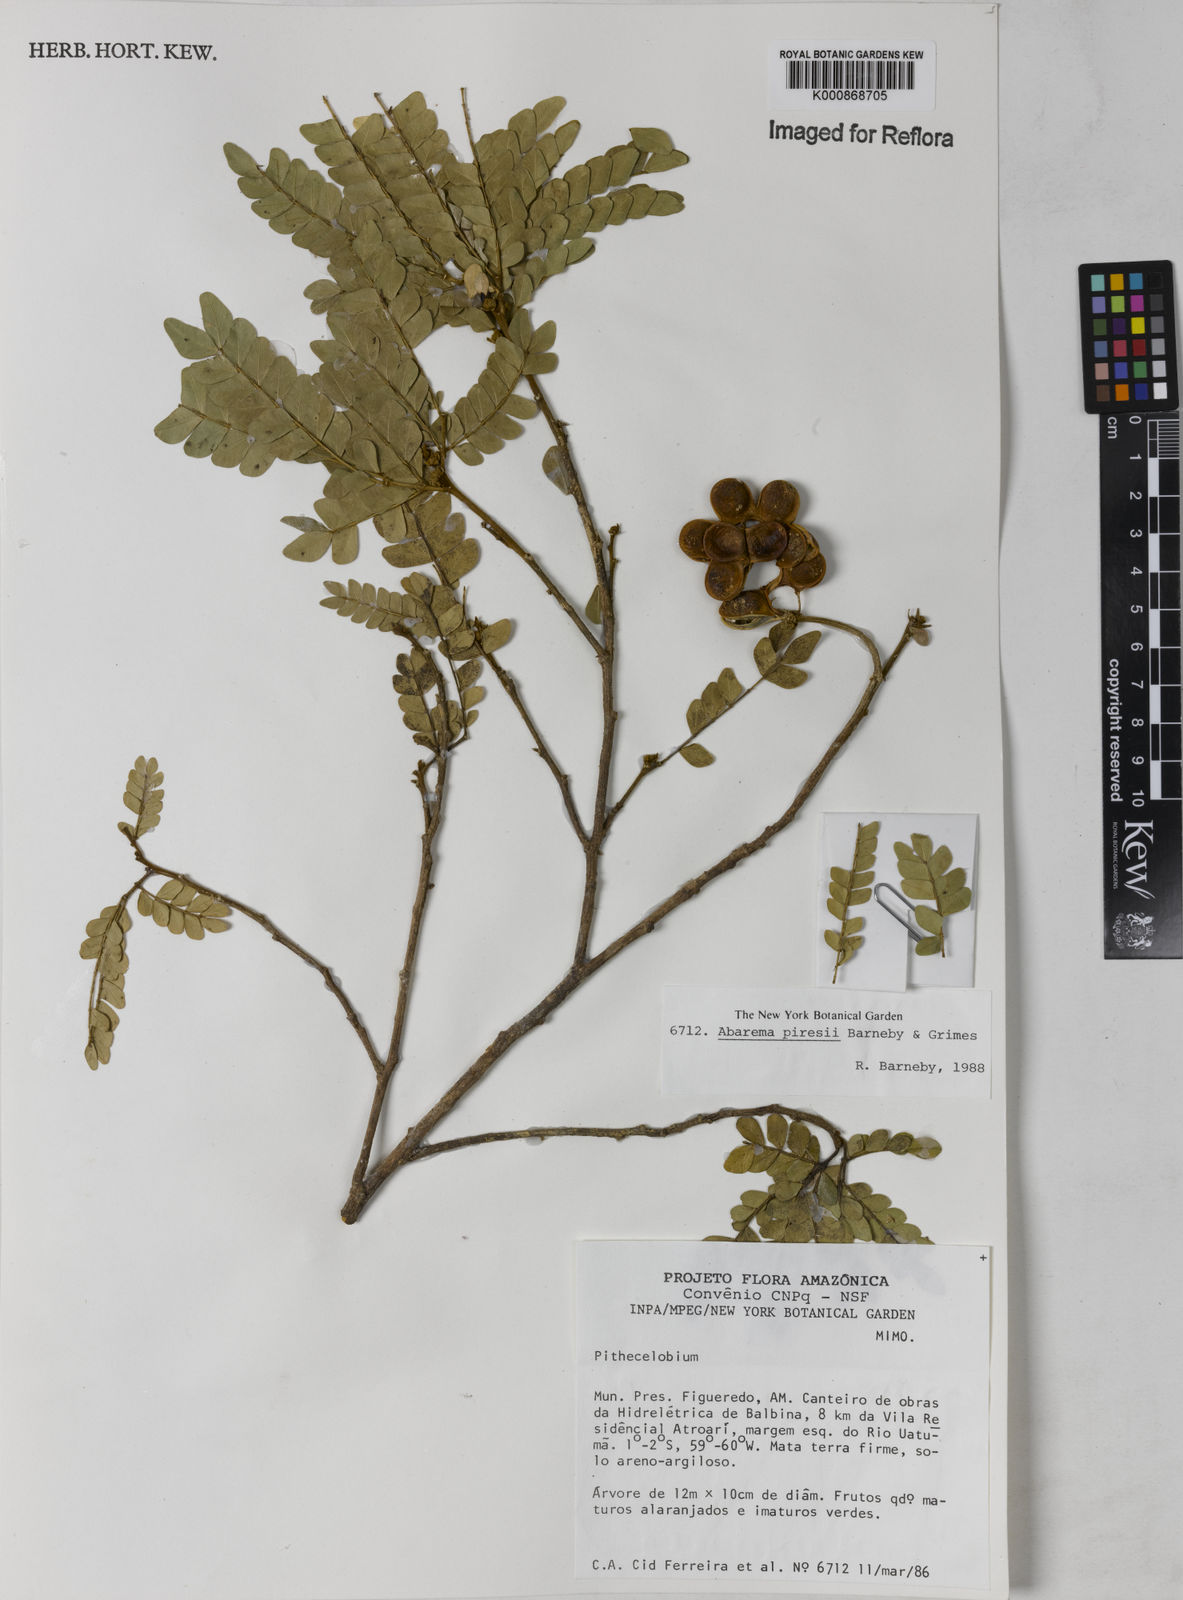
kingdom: Plantae
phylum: Tracheophyta
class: Magnoliopsida
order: Fabales
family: Fabaceae
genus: Jupunba
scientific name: Jupunba piresii
